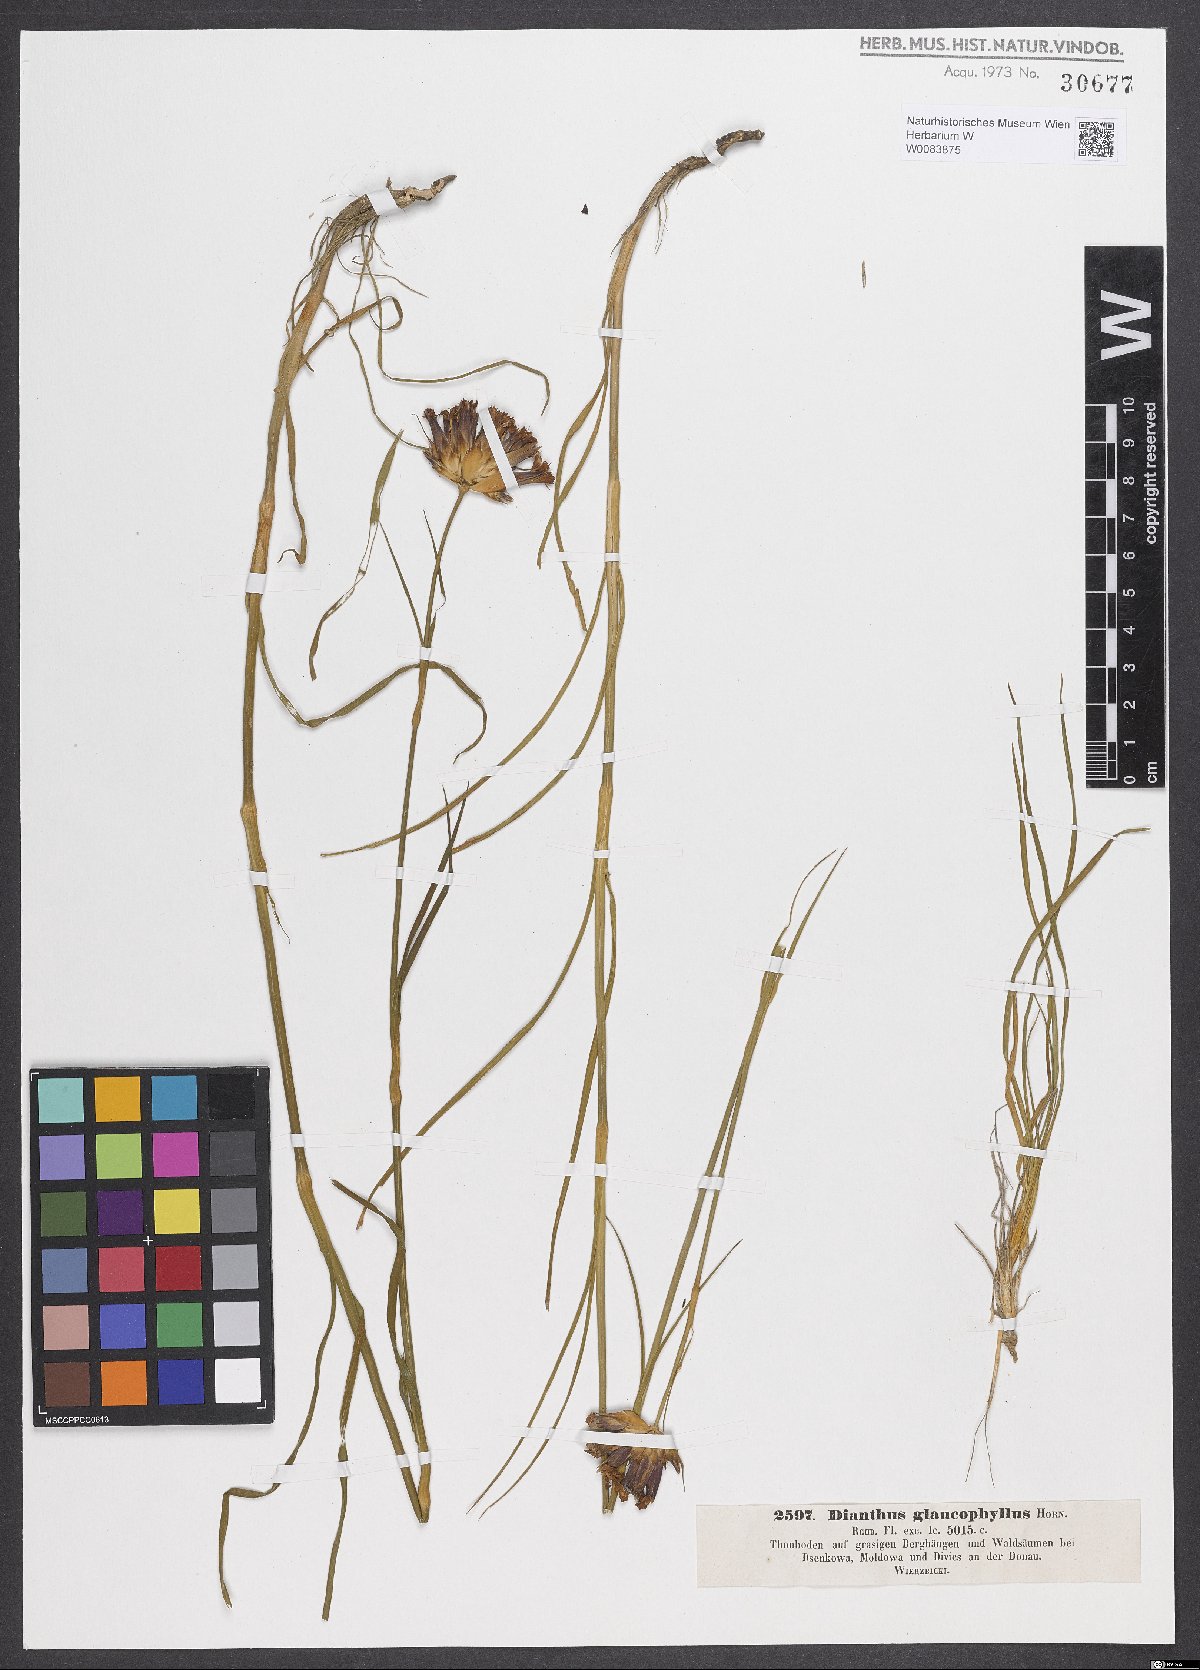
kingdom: Plantae
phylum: Tracheophyta
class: Magnoliopsida
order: Caryophyllales
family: Caryophyllaceae
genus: Dianthus
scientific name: Dianthus balbisii
